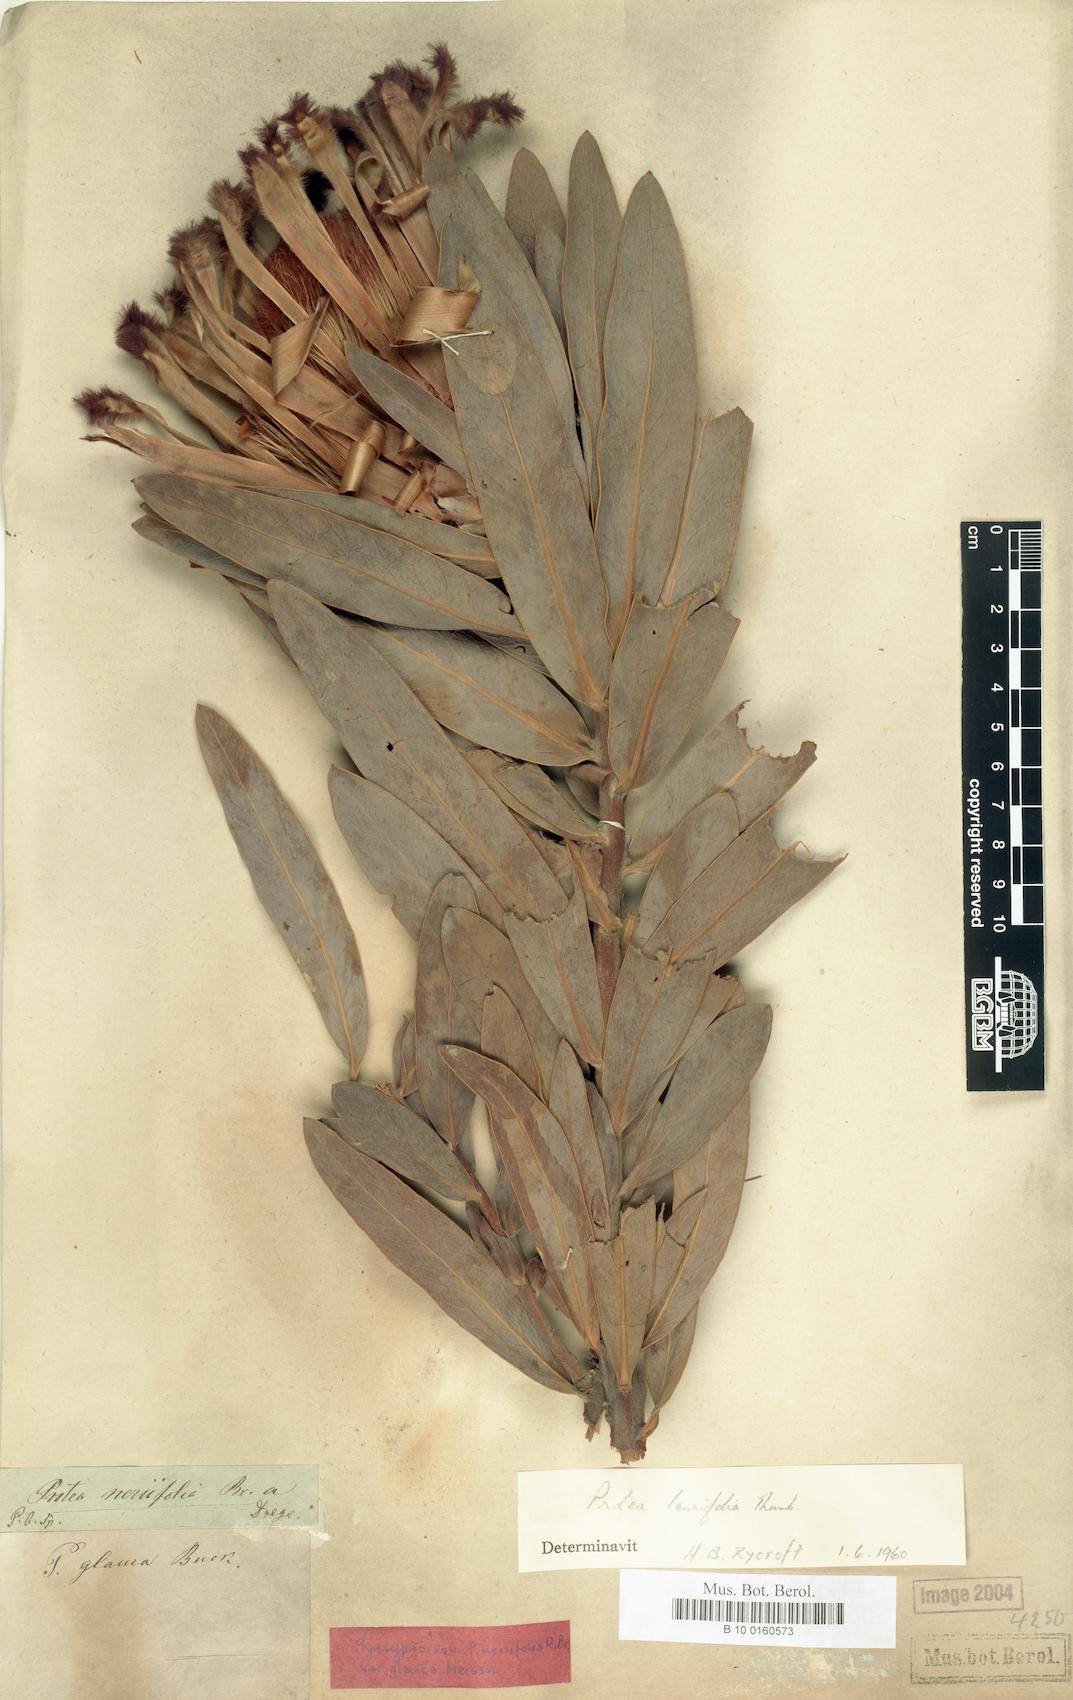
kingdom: Plantae
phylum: Tracheophyta
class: Magnoliopsida
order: Proteales
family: Proteaceae
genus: Protea
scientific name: Protea laurifolia
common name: Grey-leaf sugarbsh
